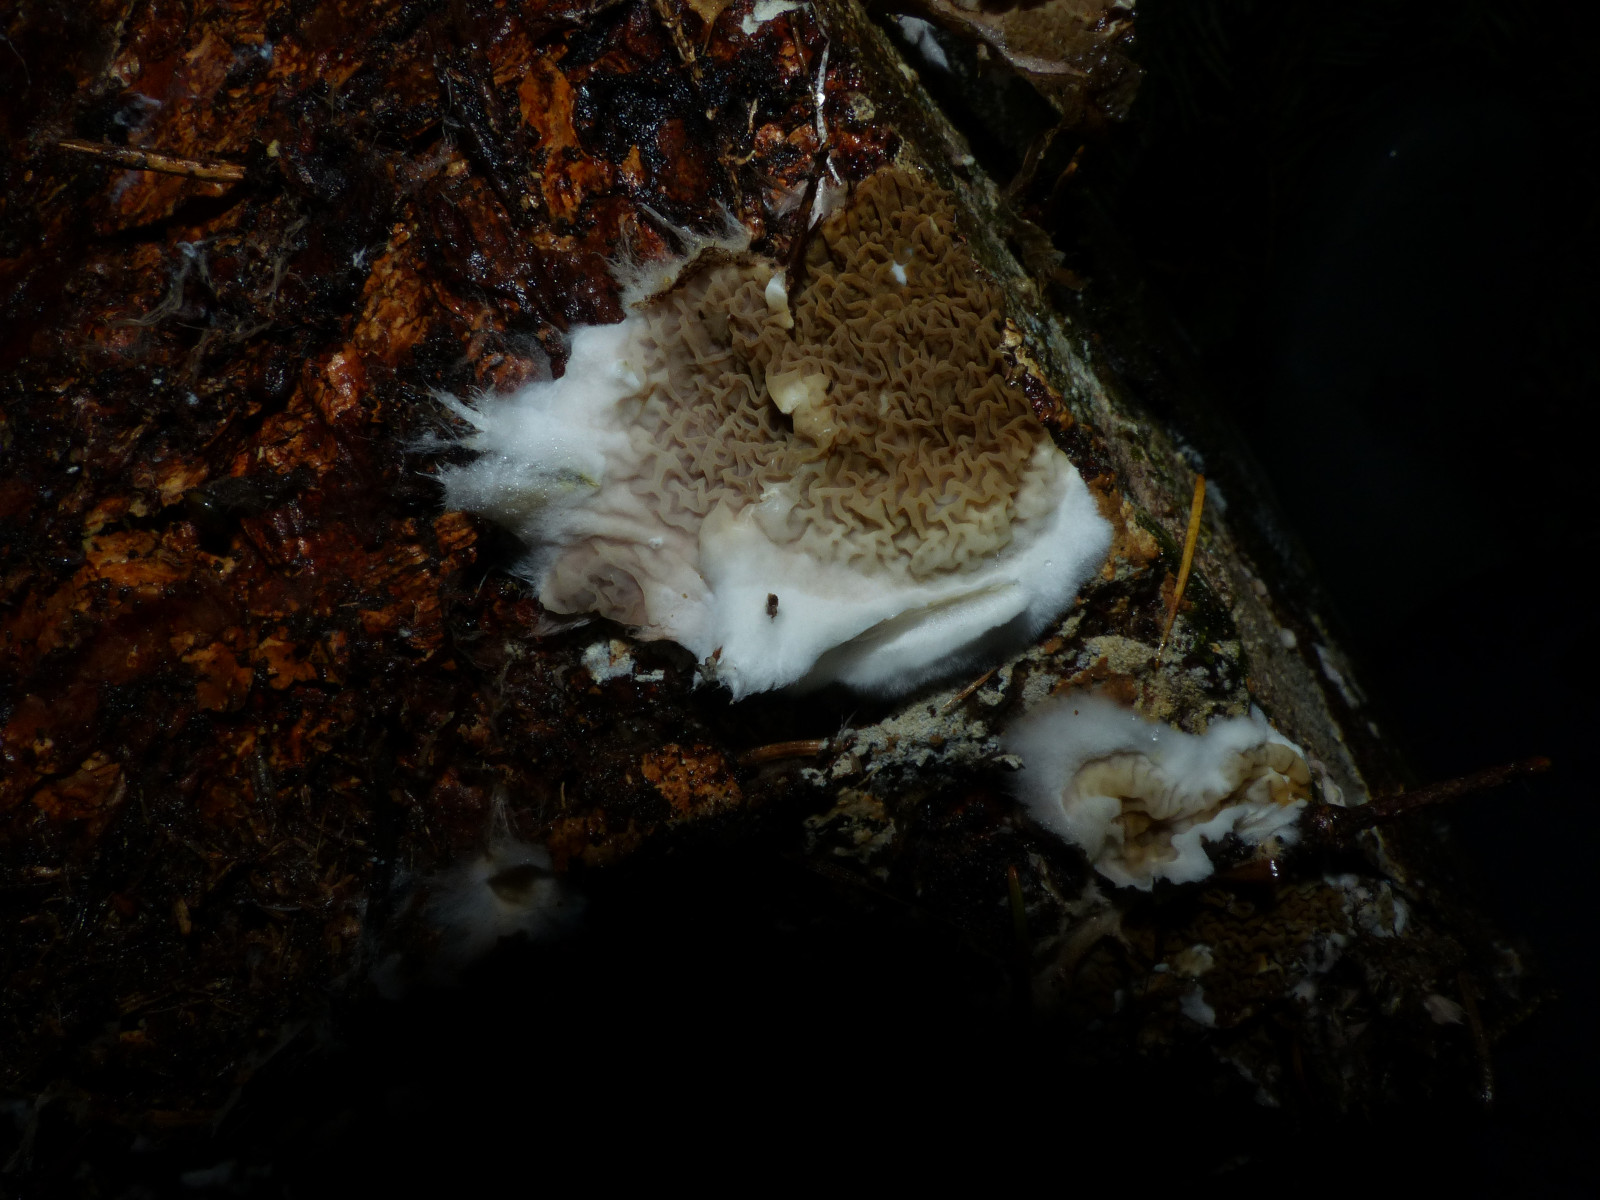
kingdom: Fungi
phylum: Basidiomycota
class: Agaricomycetes
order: Boletales
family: Serpulaceae
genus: Serpula
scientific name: Serpula himantioides
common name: tyndkødet hussvamp
